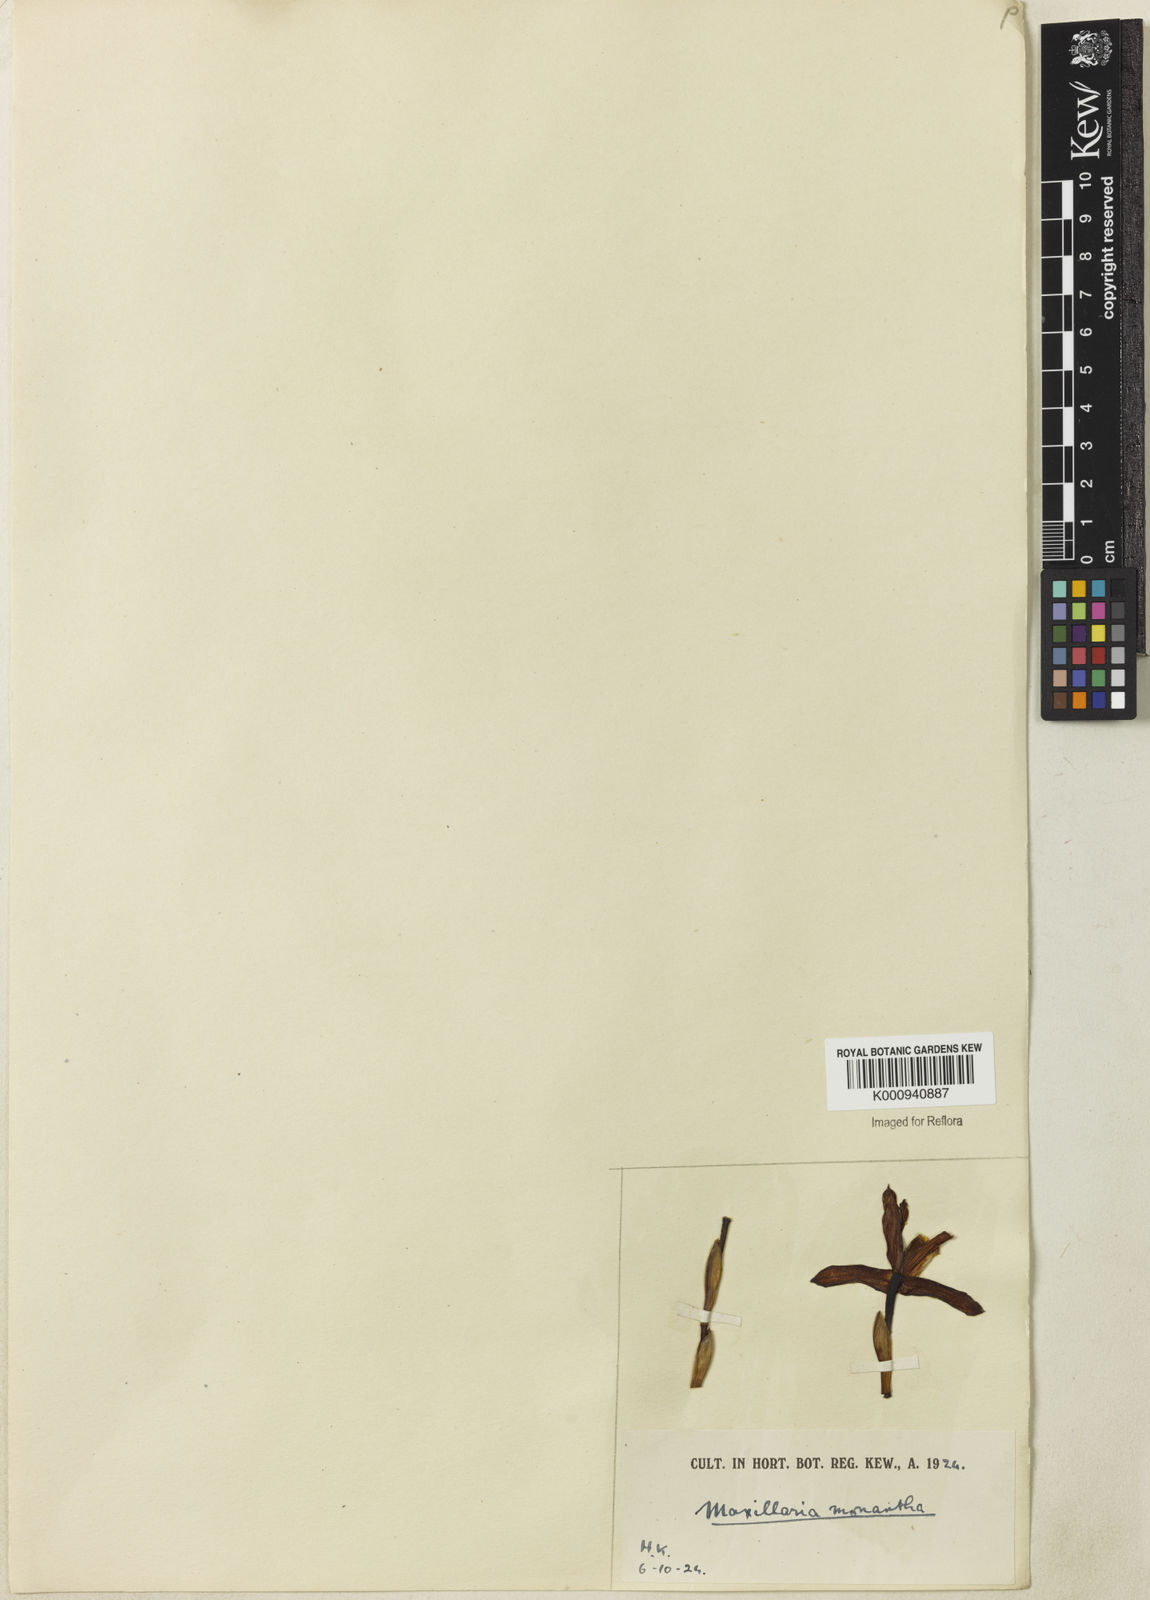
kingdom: Plantae
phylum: Tracheophyta
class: Liliopsida
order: Asparagales
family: Orchidaceae
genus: Maxillaria
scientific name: Maxillaria monantha
